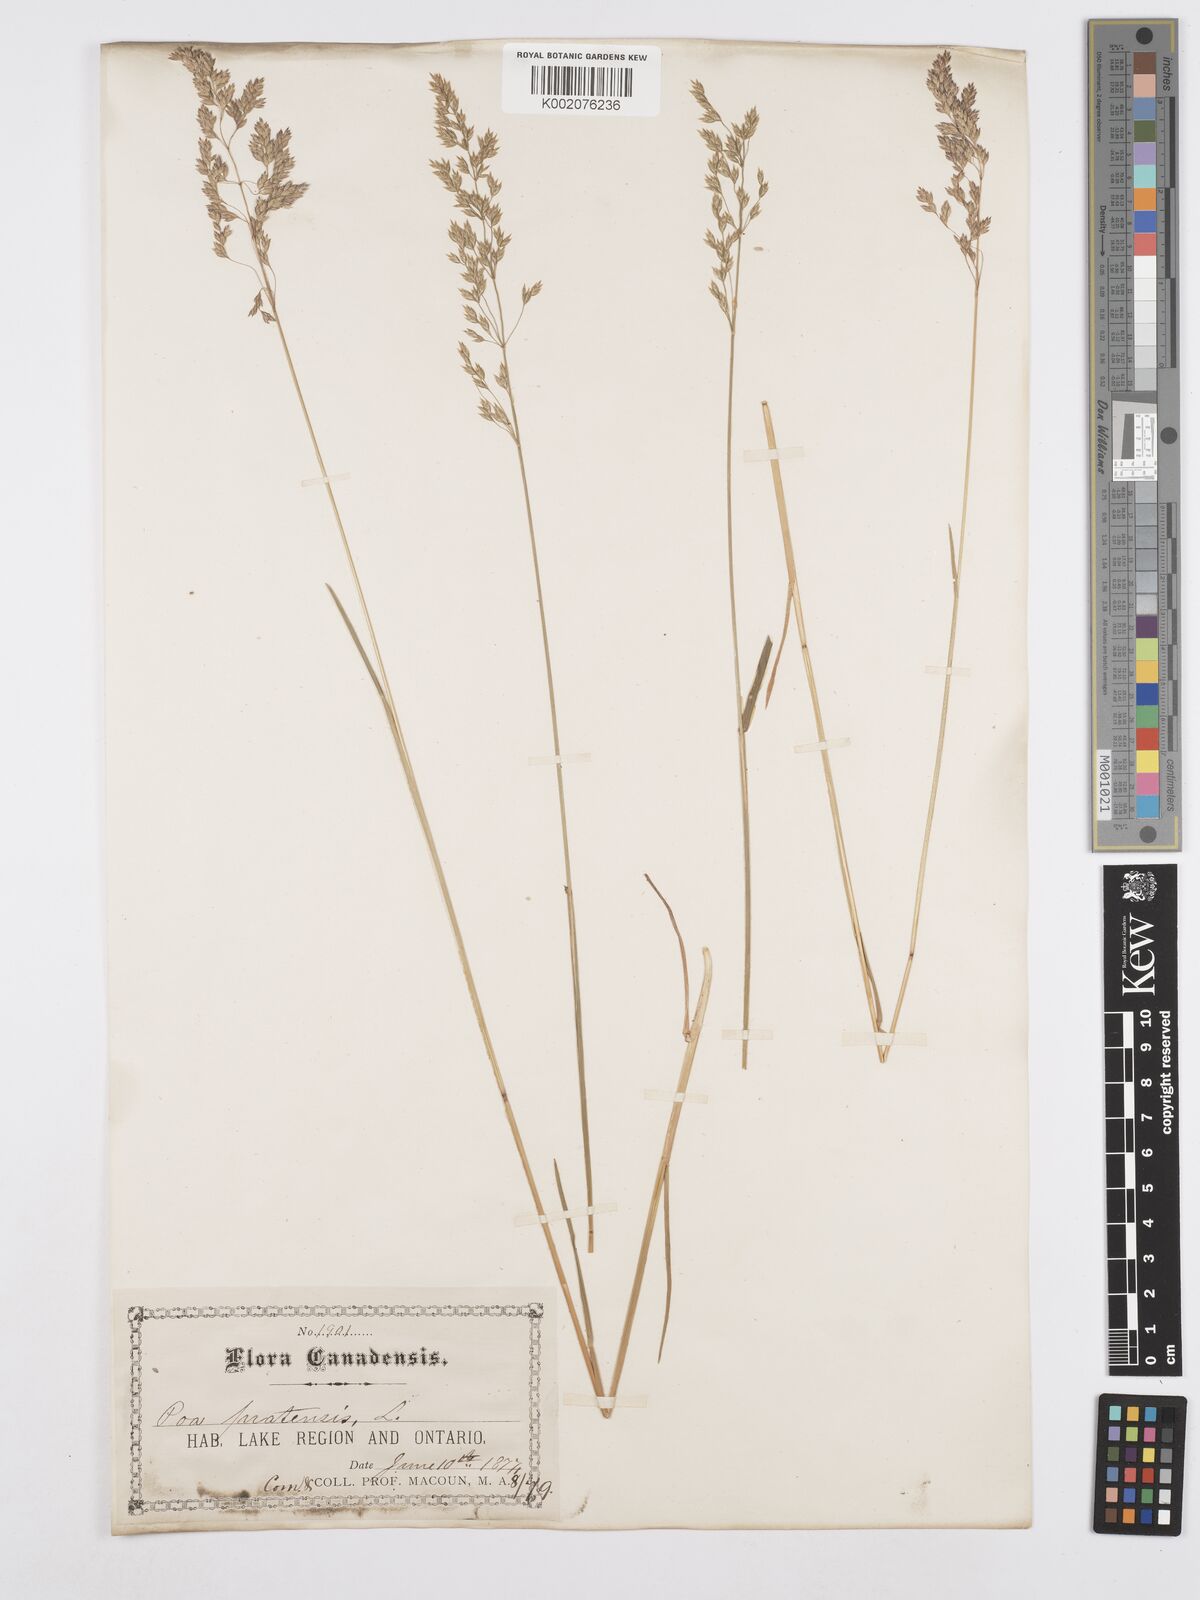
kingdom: Plantae
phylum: Tracheophyta
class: Liliopsida
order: Poales
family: Poaceae
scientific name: Poaceae
